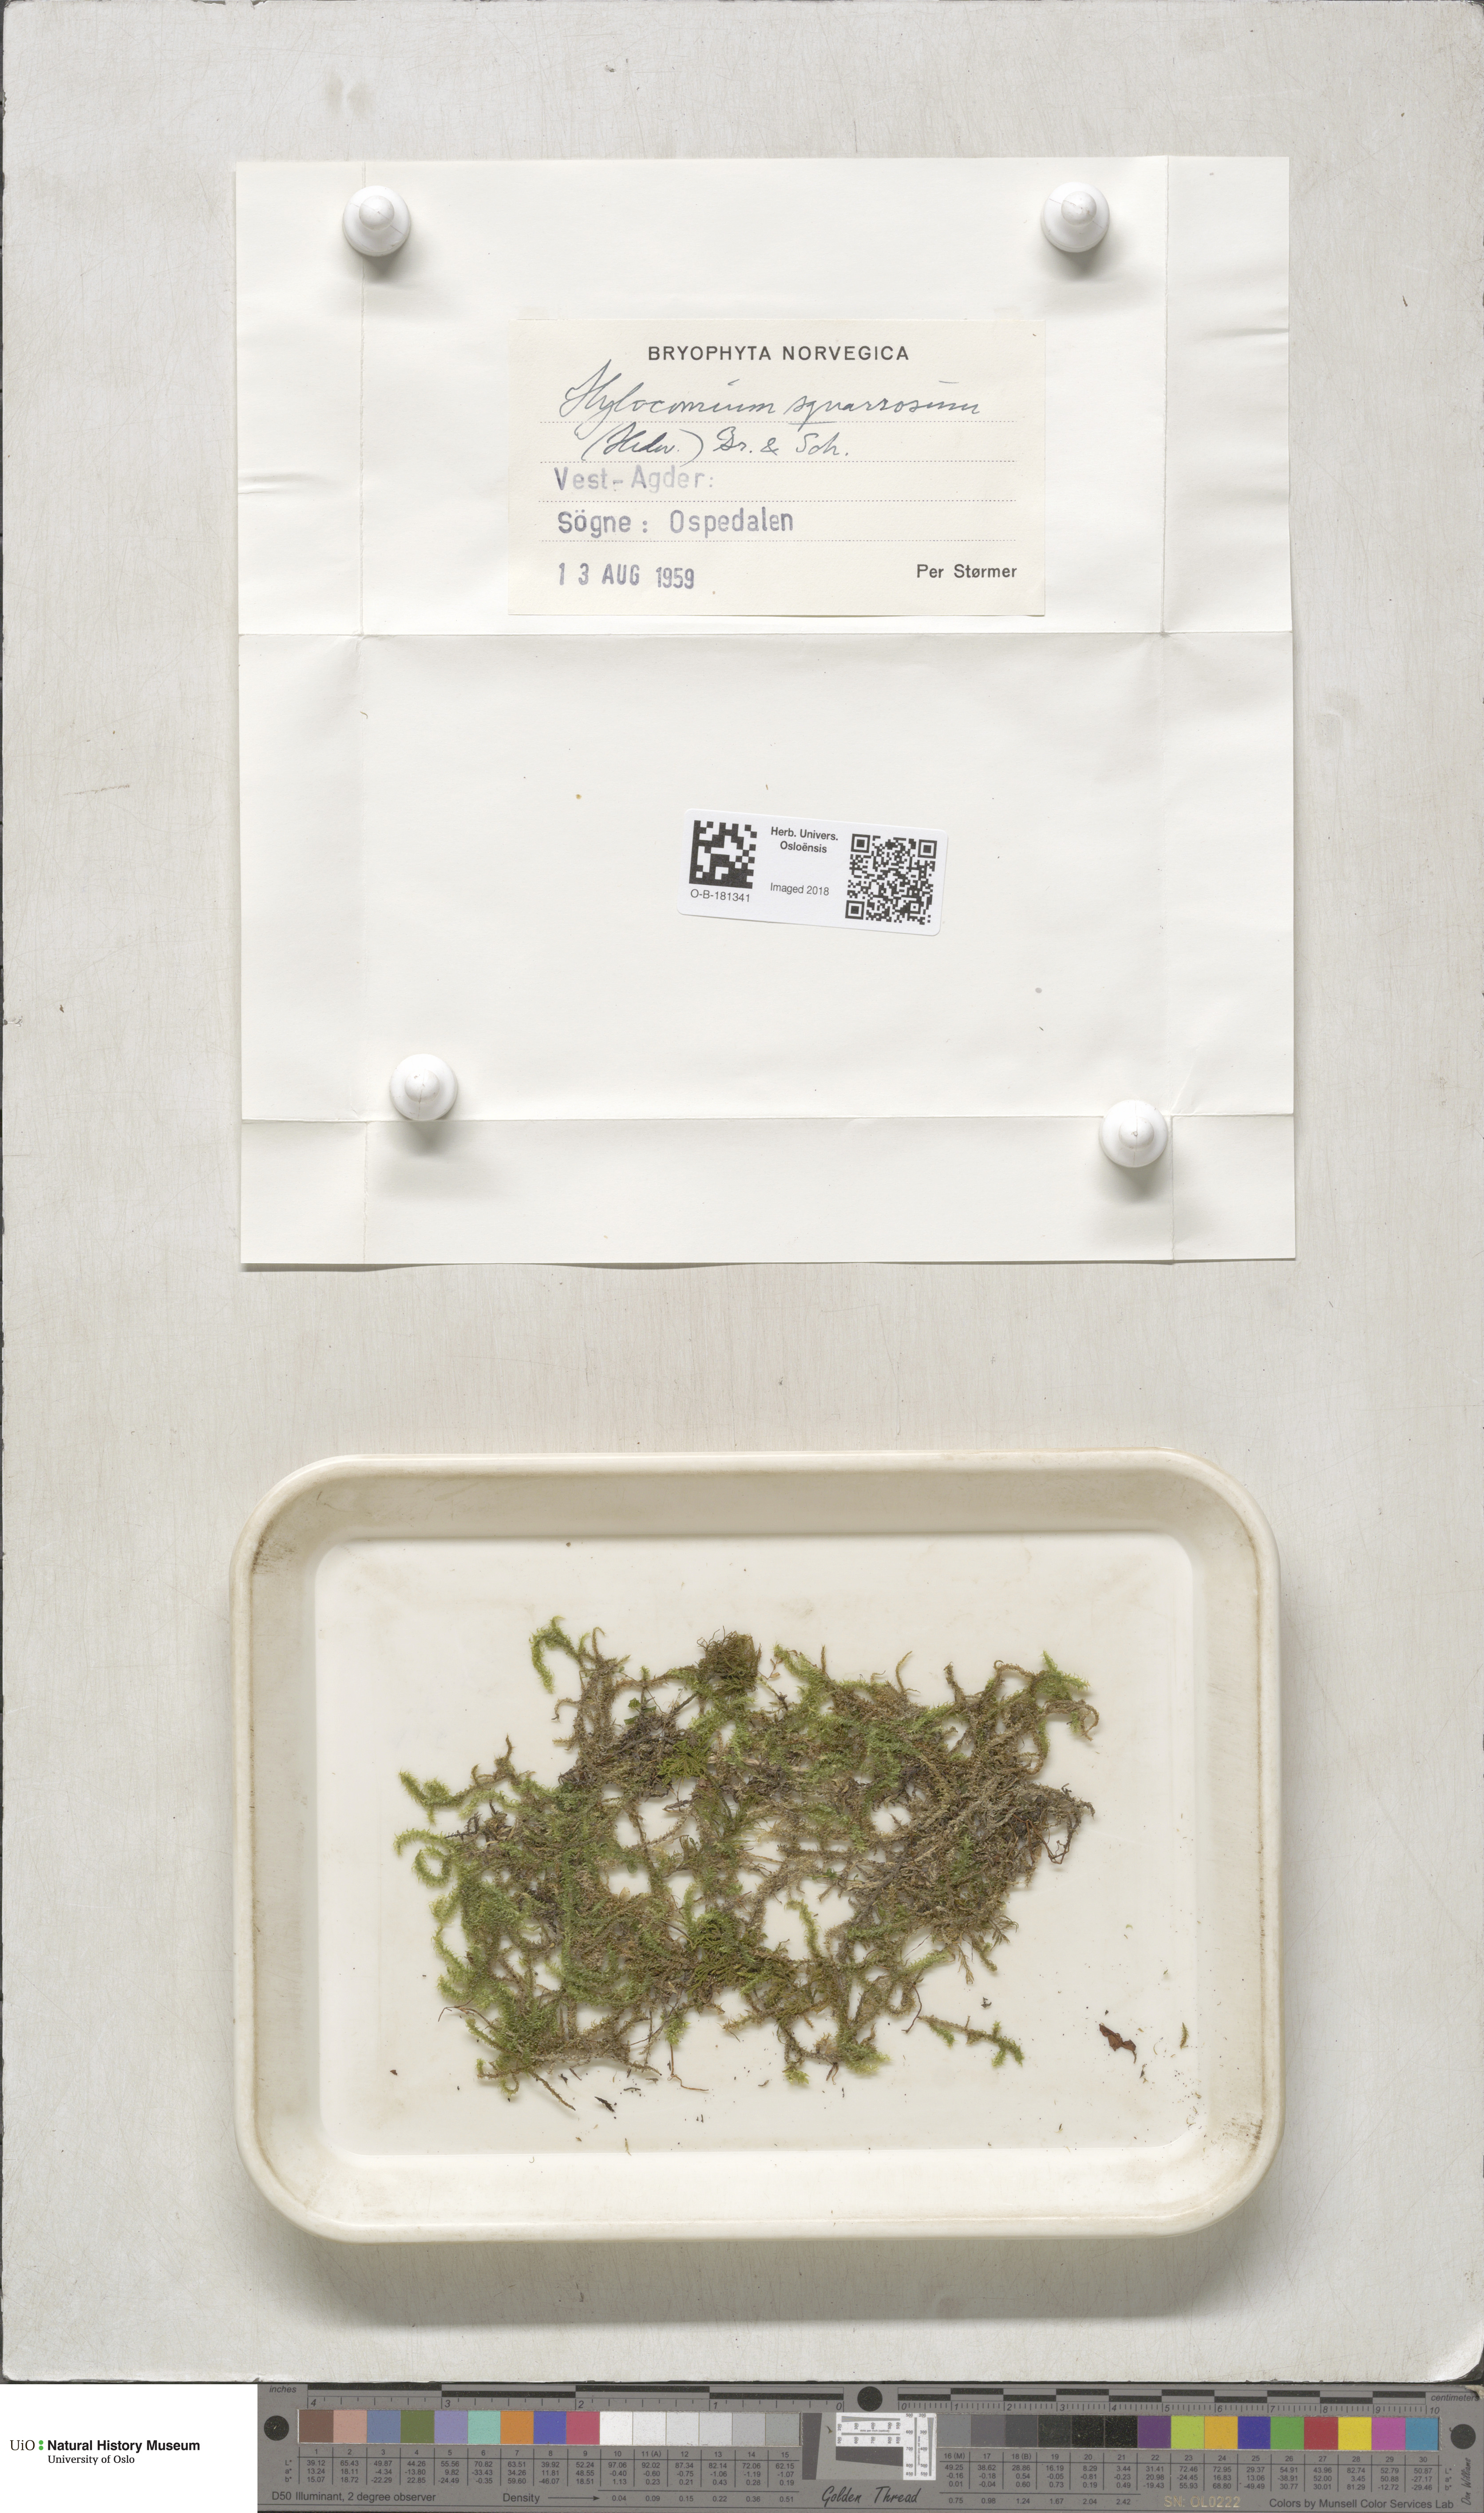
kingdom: Plantae
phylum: Bryophyta
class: Bryopsida
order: Hypnales
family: Hylocomiaceae
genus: Rhytidiadelphus
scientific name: Rhytidiadelphus squarrosus
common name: Springy turf-moss
